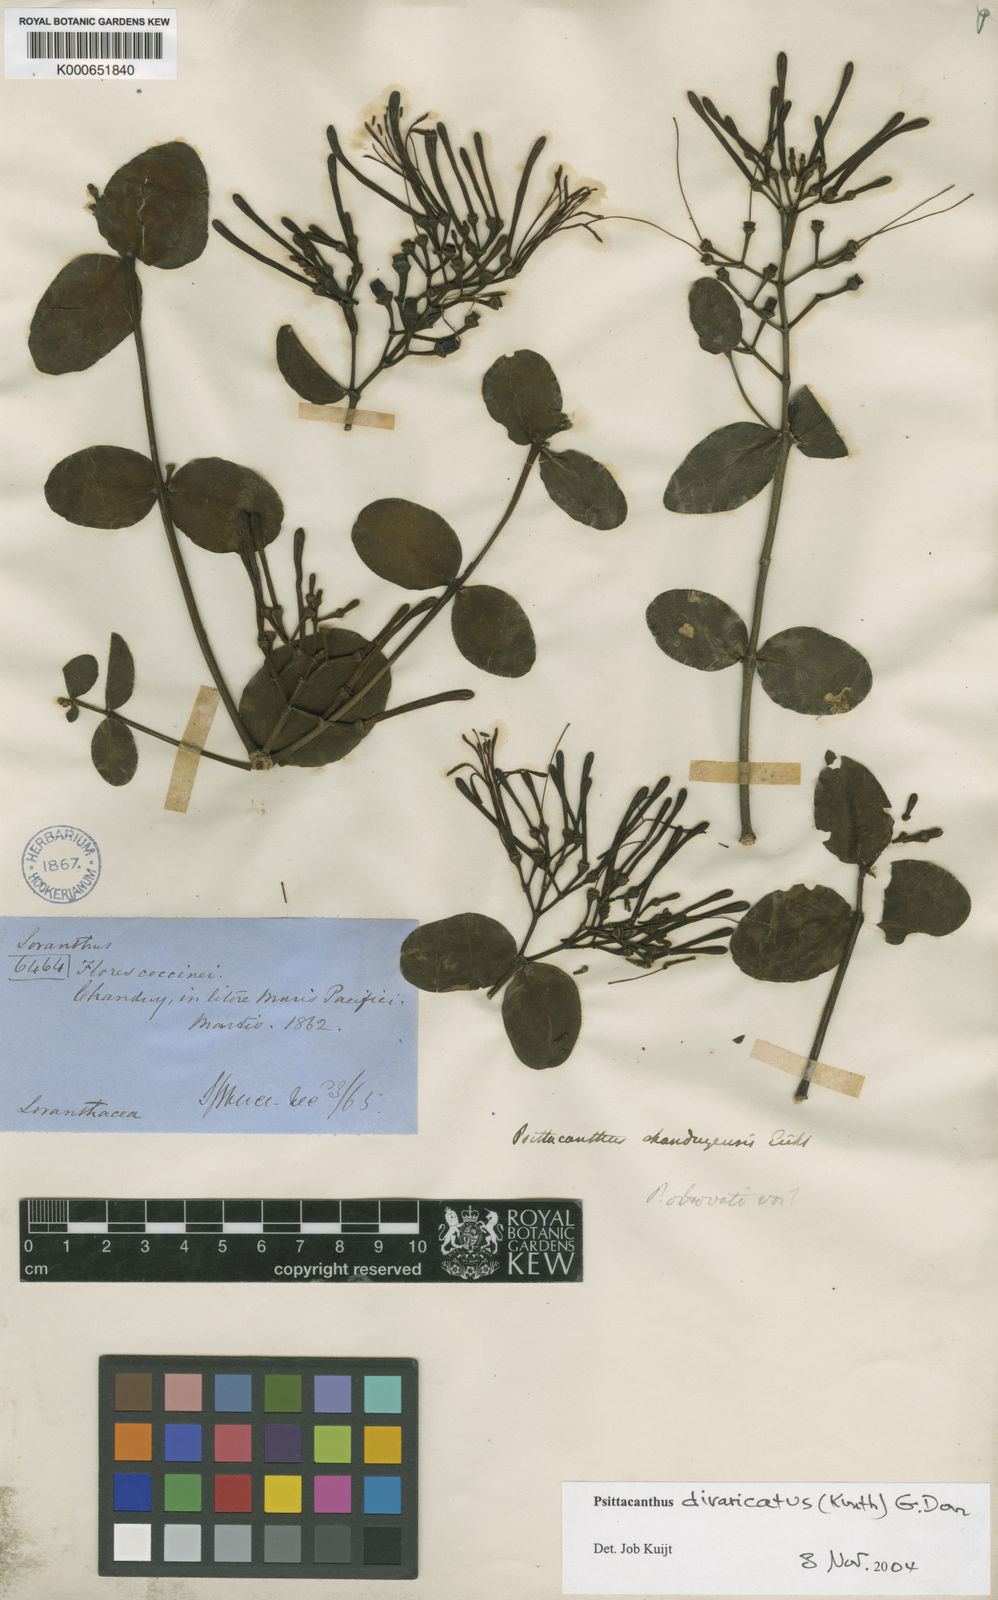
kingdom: Plantae
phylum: Tracheophyta
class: Magnoliopsida
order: Santalales
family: Loranthaceae
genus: Psittacanthus
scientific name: Psittacanthus chanduyensis
